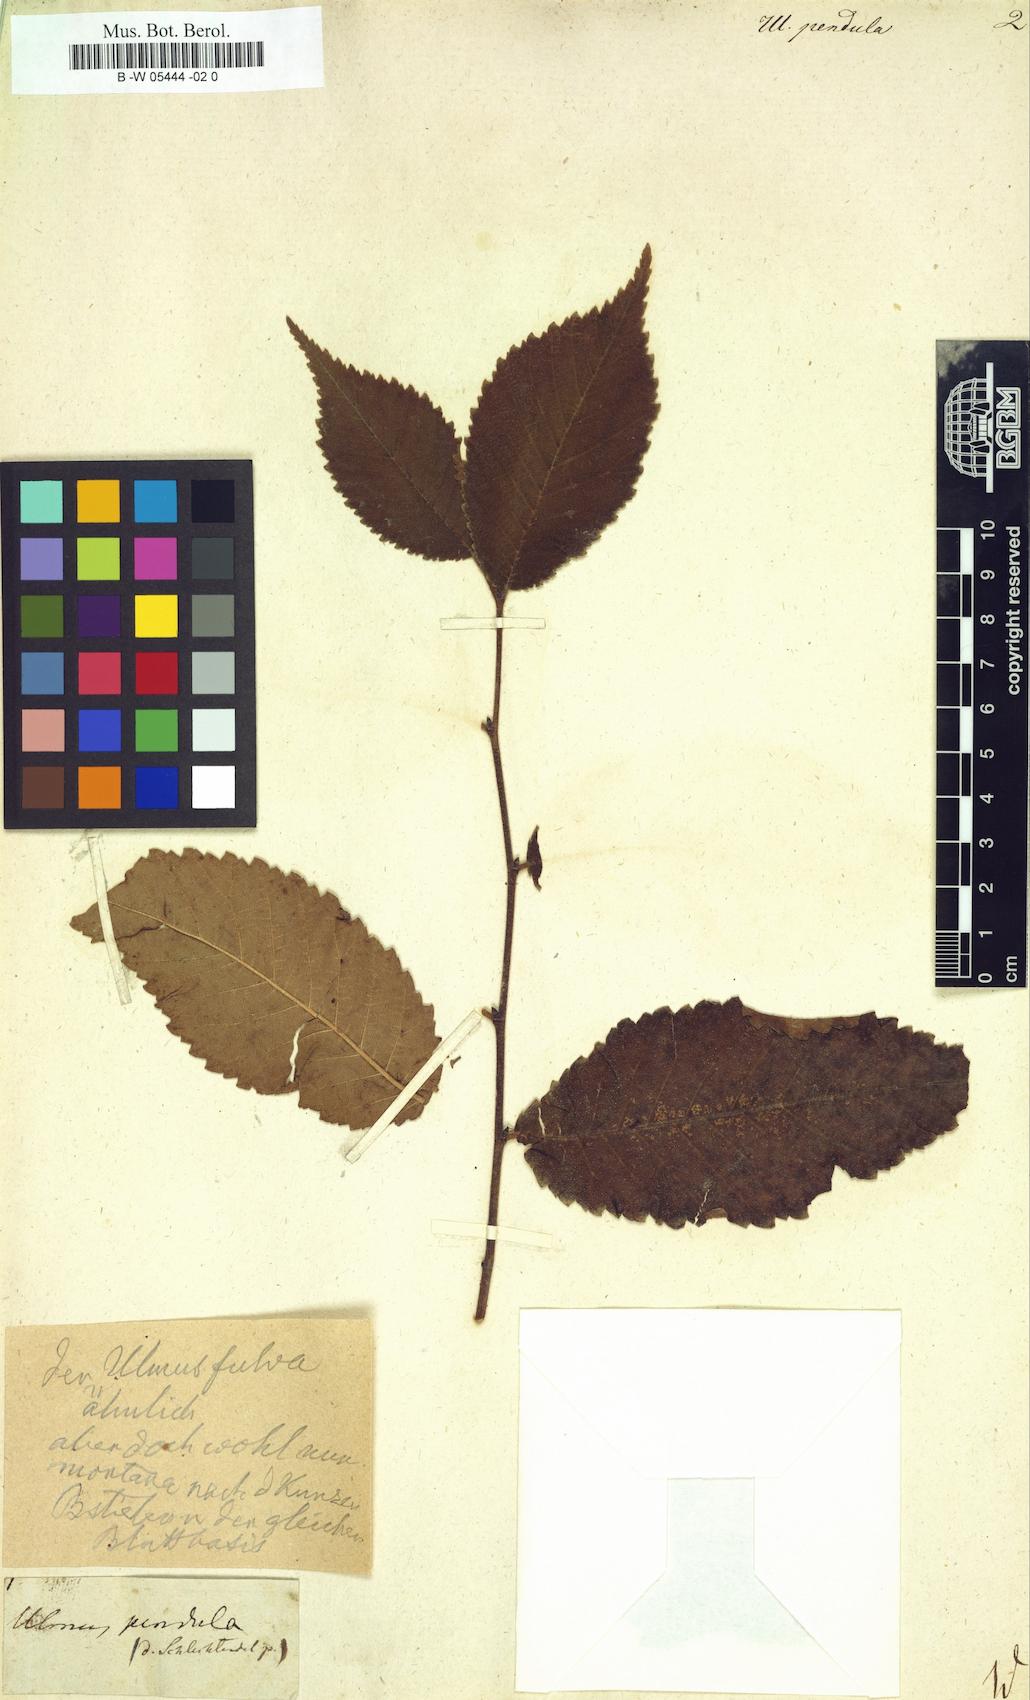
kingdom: Plantae
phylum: Tracheophyta
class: Magnoliopsida
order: Rosales
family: Ulmaceae
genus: Ulmus
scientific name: Ulmus rubra
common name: Slippery elm
